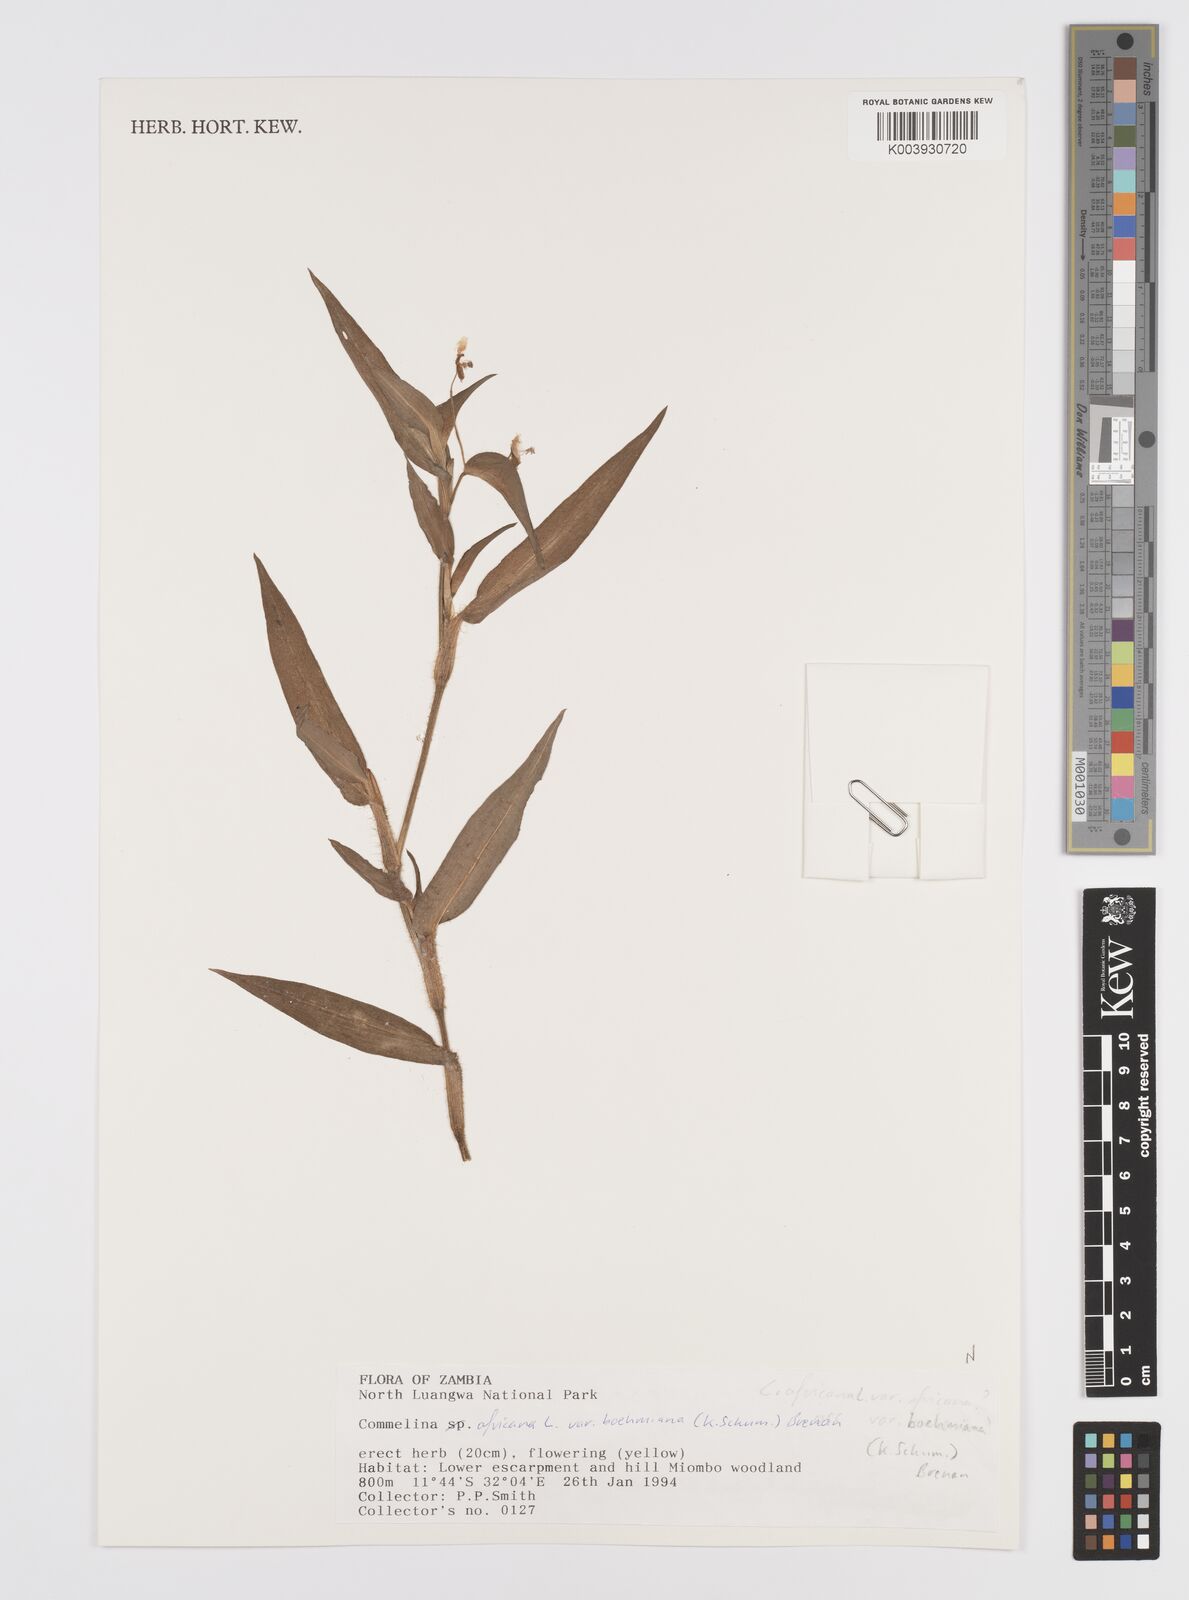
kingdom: Plantae
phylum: Tracheophyta
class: Liliopsida
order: Commelinales
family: Commelinaceae
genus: Commelina
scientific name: Commelina africana
